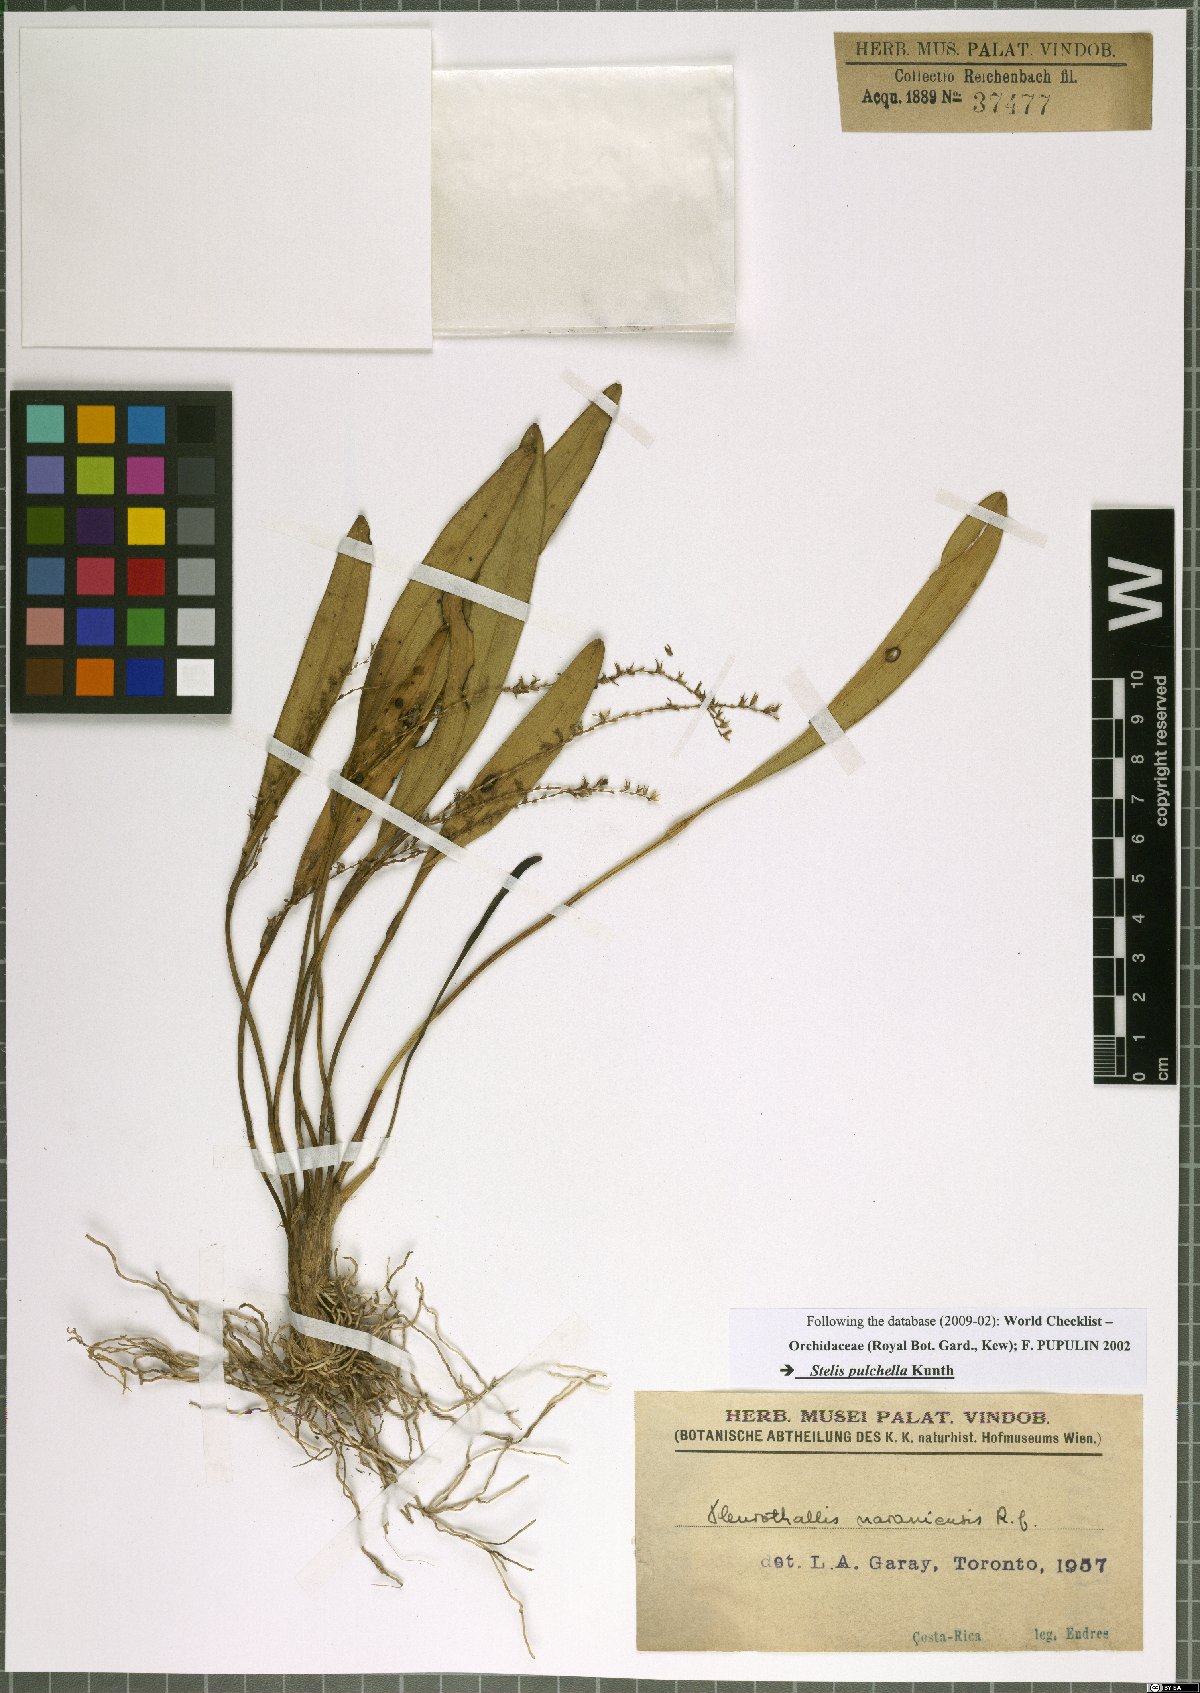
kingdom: Plantae
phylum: Tracheophyta
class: Liliopsida
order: Asparagales
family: Orchidaceae
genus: Stelis
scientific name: Stelis pulchella
